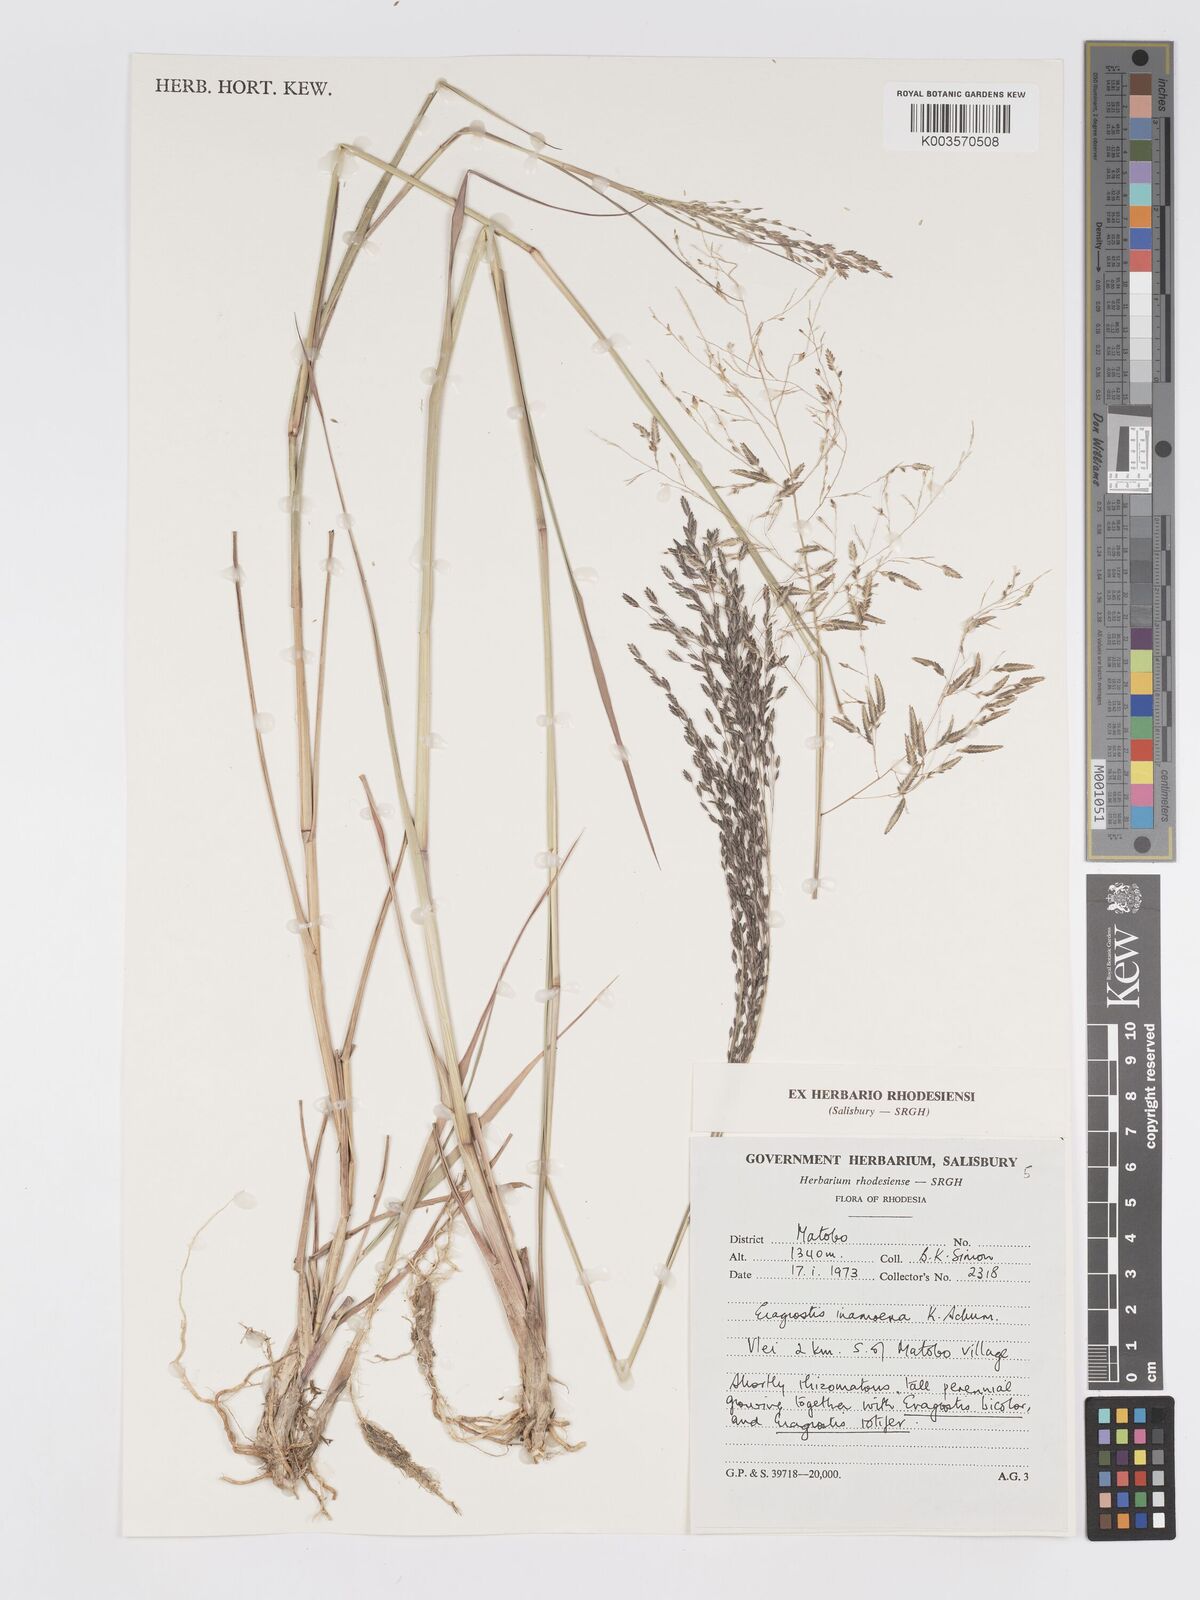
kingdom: Plantae
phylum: Tracheophyta
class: Liliopsida
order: Poales
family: Poaceae
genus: Eragrostis
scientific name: Eragrostis inamoena
